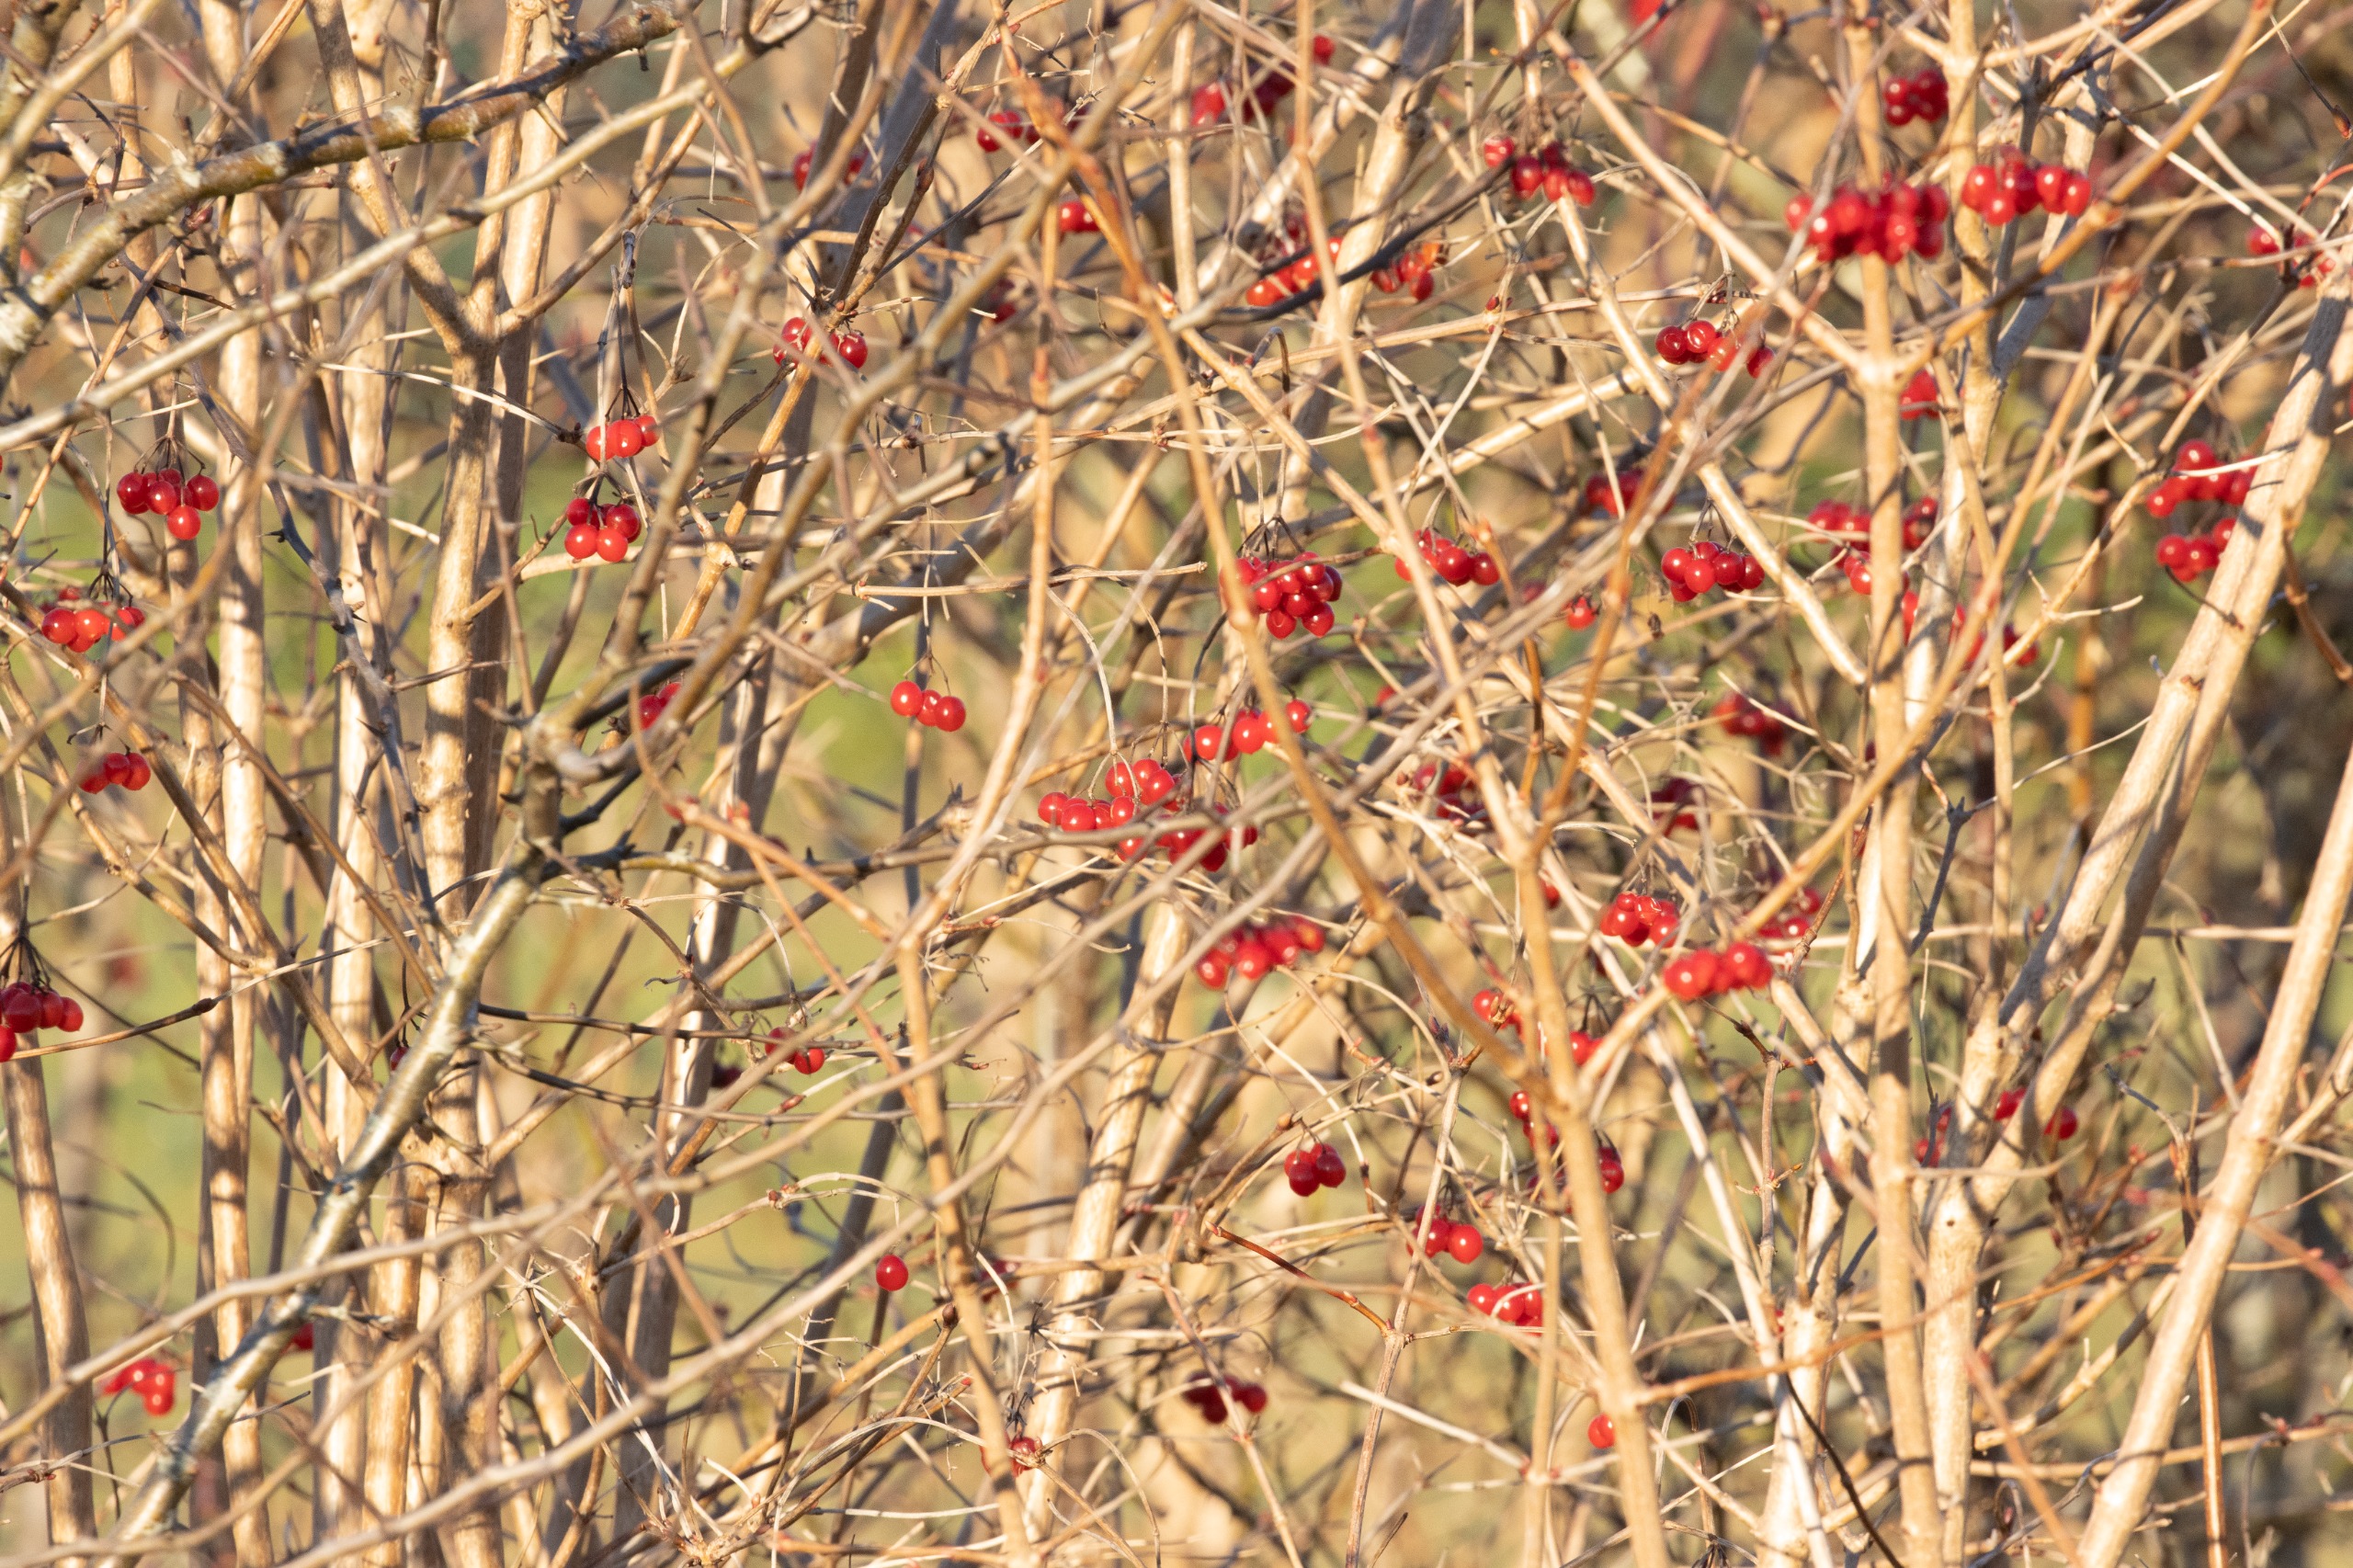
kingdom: Plantae
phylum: Tracheophyta
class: Magnoliopsida
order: Dipsacales
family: Viburnaceae
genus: Viburnum
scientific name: Viburnum opulus
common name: Kvalkved
